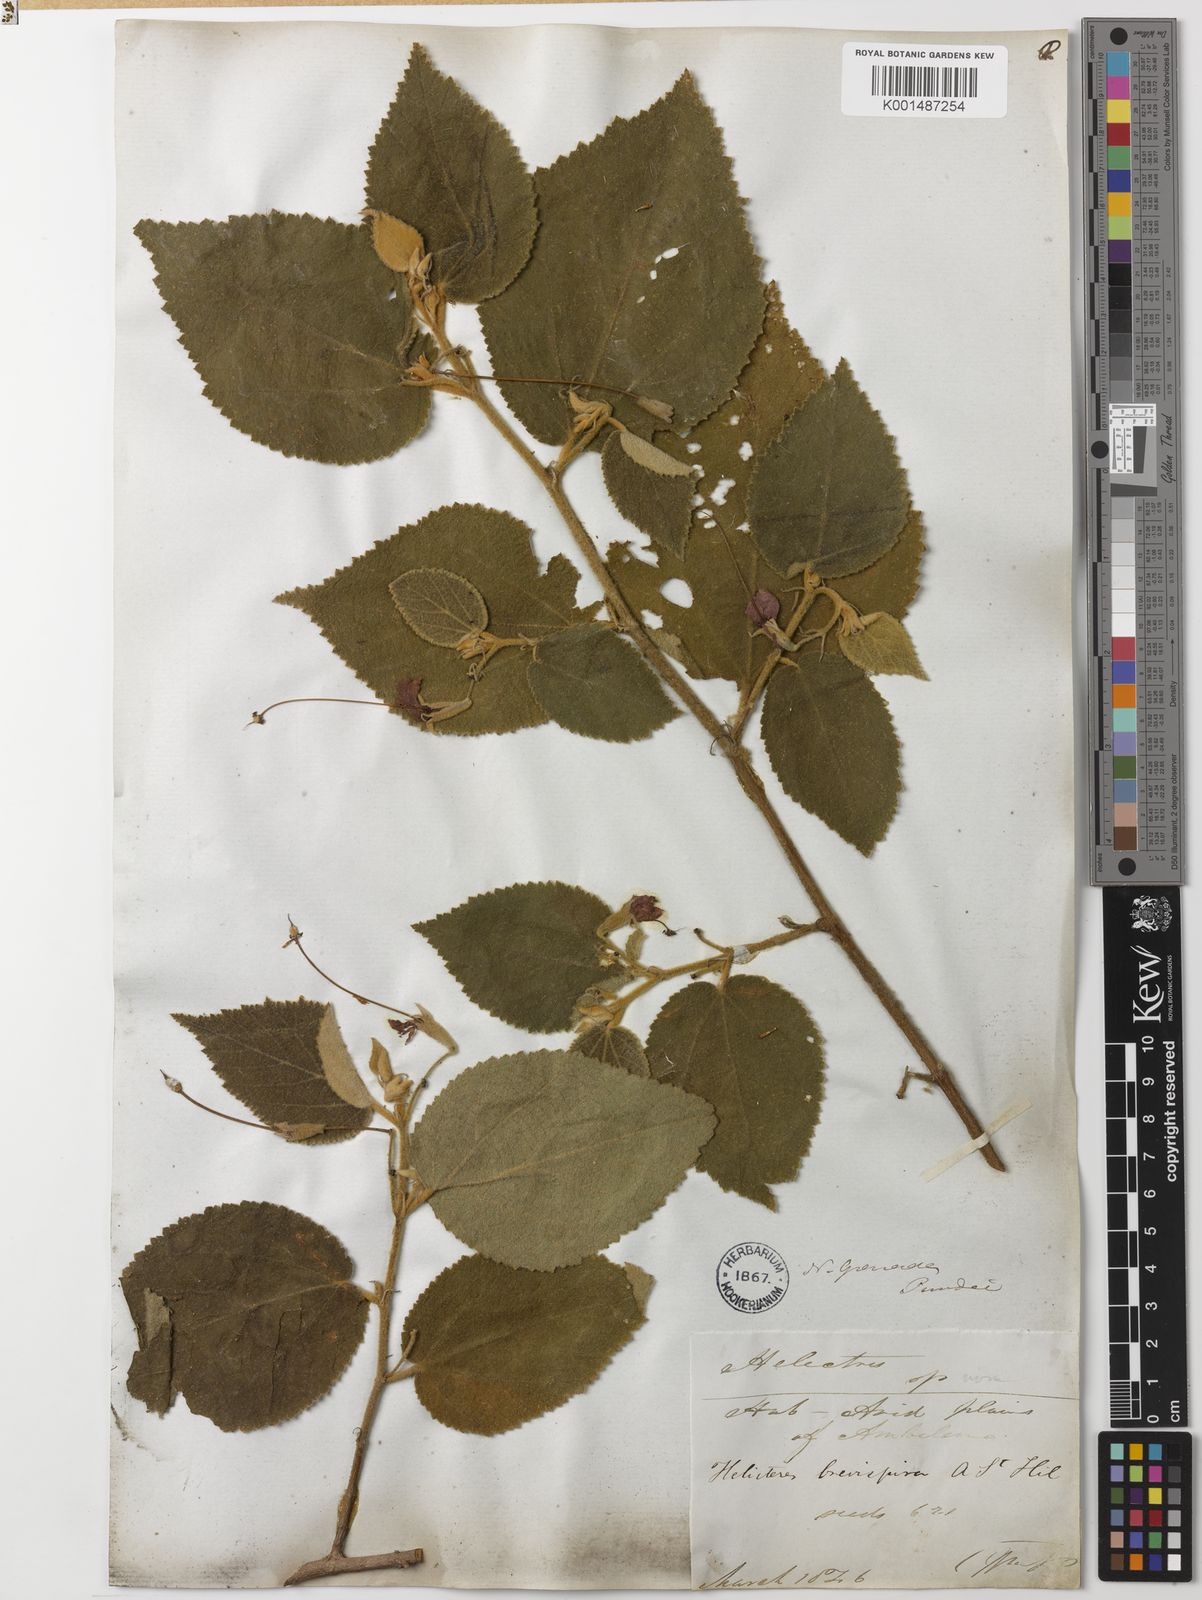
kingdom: Plantae
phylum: Tracheophyta
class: Magnoliopsida
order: Malvales
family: Malvaceae
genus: Helicteres
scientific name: Helicteres brevispira
